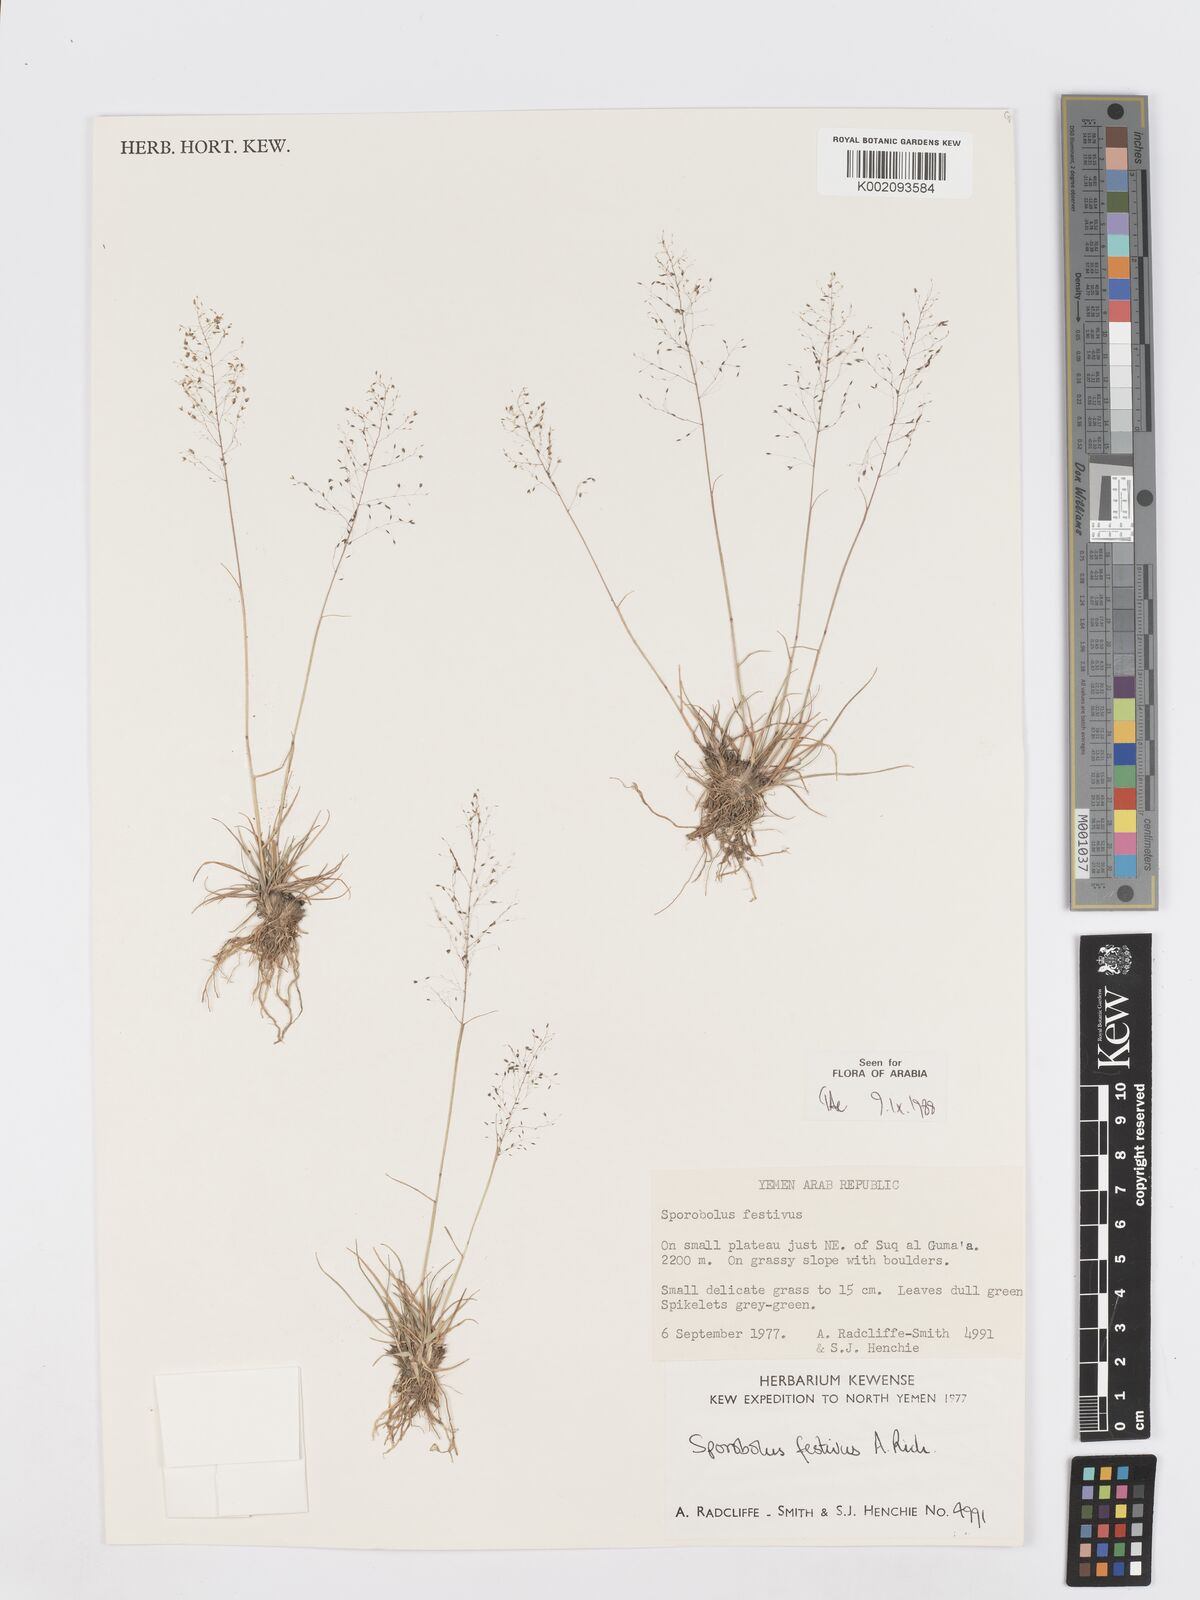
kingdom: Plantae
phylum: Tracheophyta
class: Liliopsida
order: Poales
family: Poaceae
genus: Sporobolus
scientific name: Sporobolus festivus
